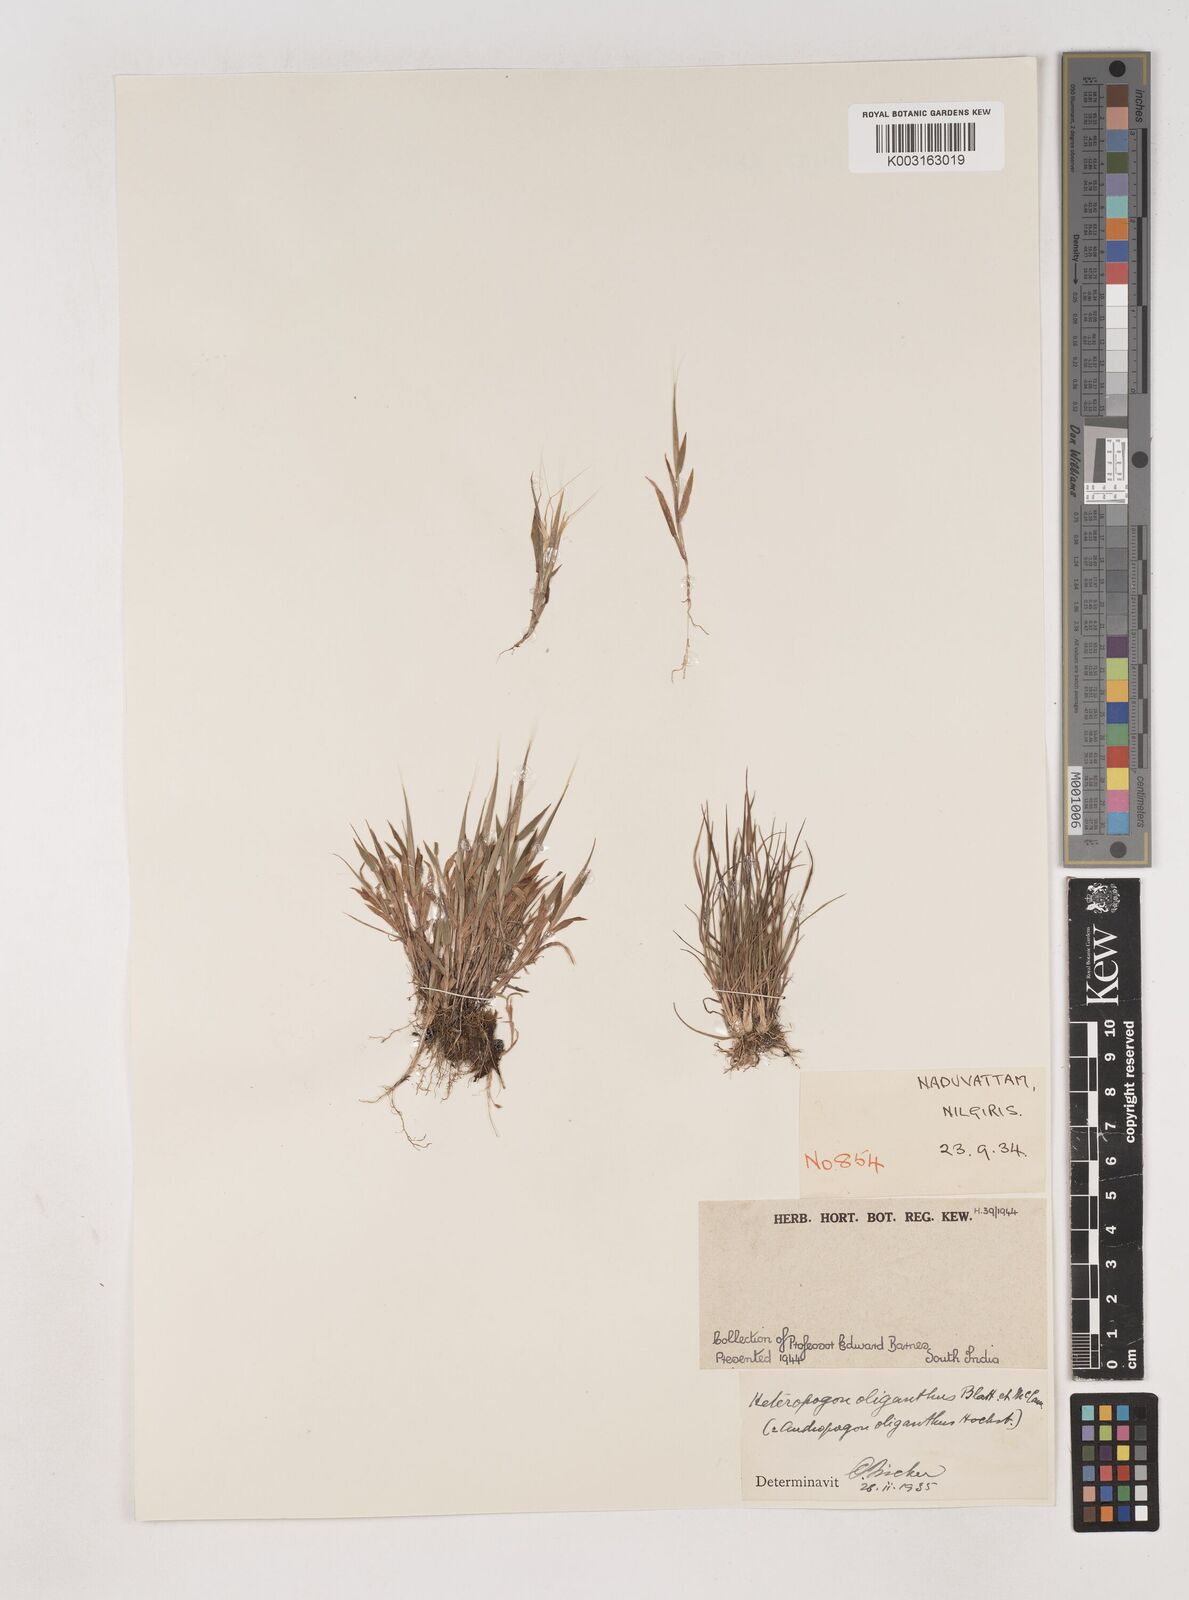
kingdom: Plantae
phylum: Tracheophyta
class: Liliopsida
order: Poales
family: Poaceae
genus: Euclasta
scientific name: Euclasta oligantha
